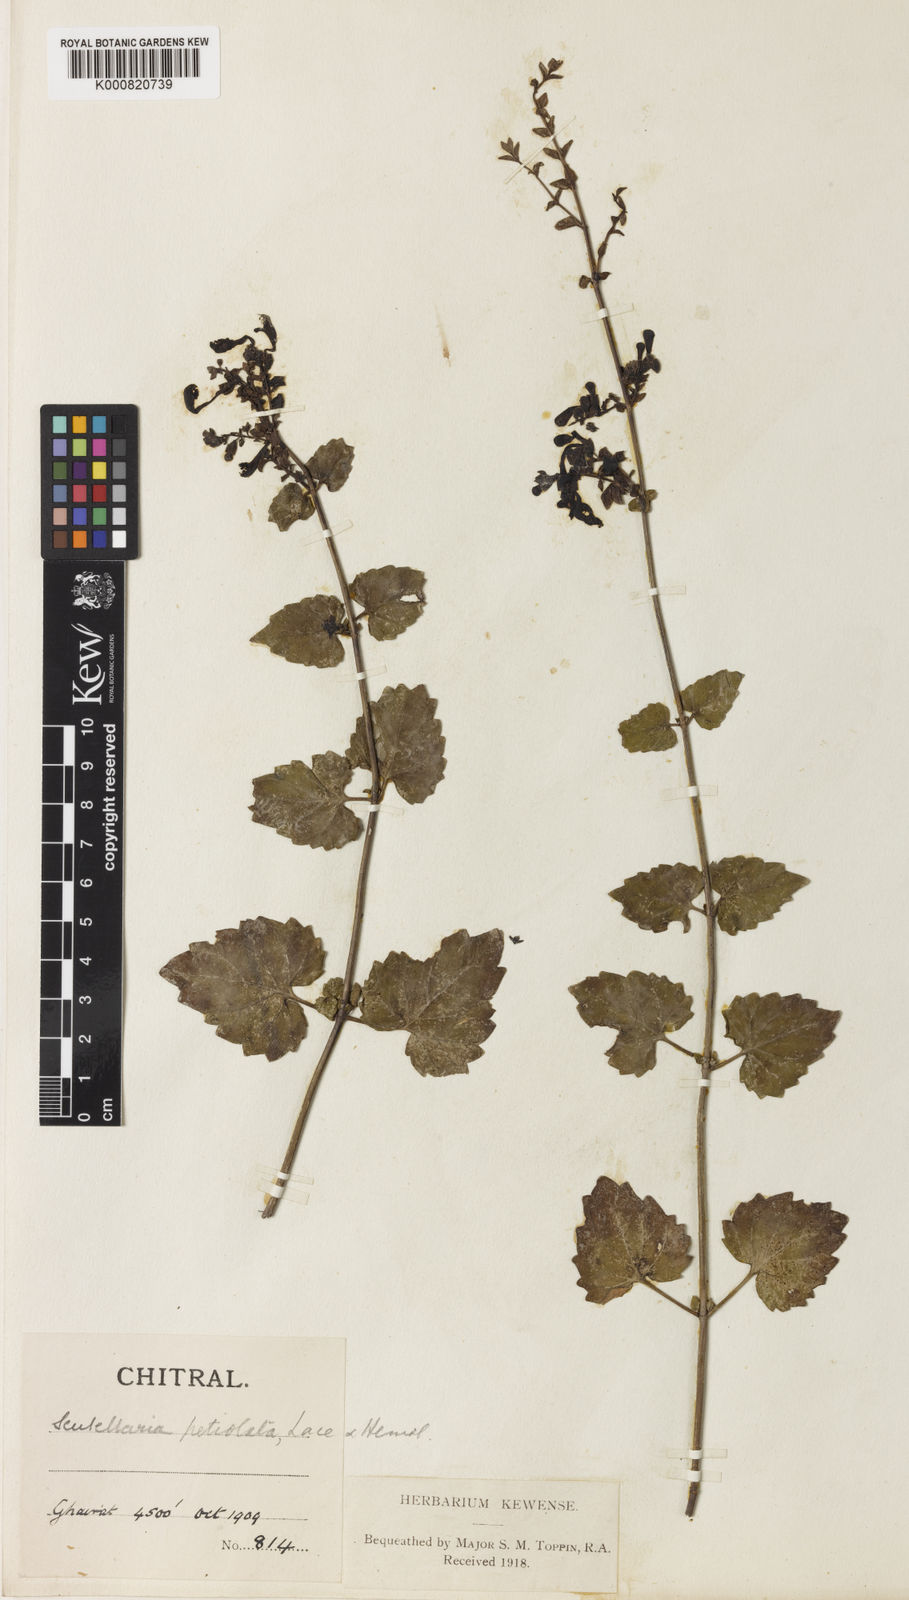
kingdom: Plantae
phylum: Tracheophyta
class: Magnoliopsida
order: Lamiales
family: Lamiaceae
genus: Scutellaria
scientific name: Scutellaria petiolata
